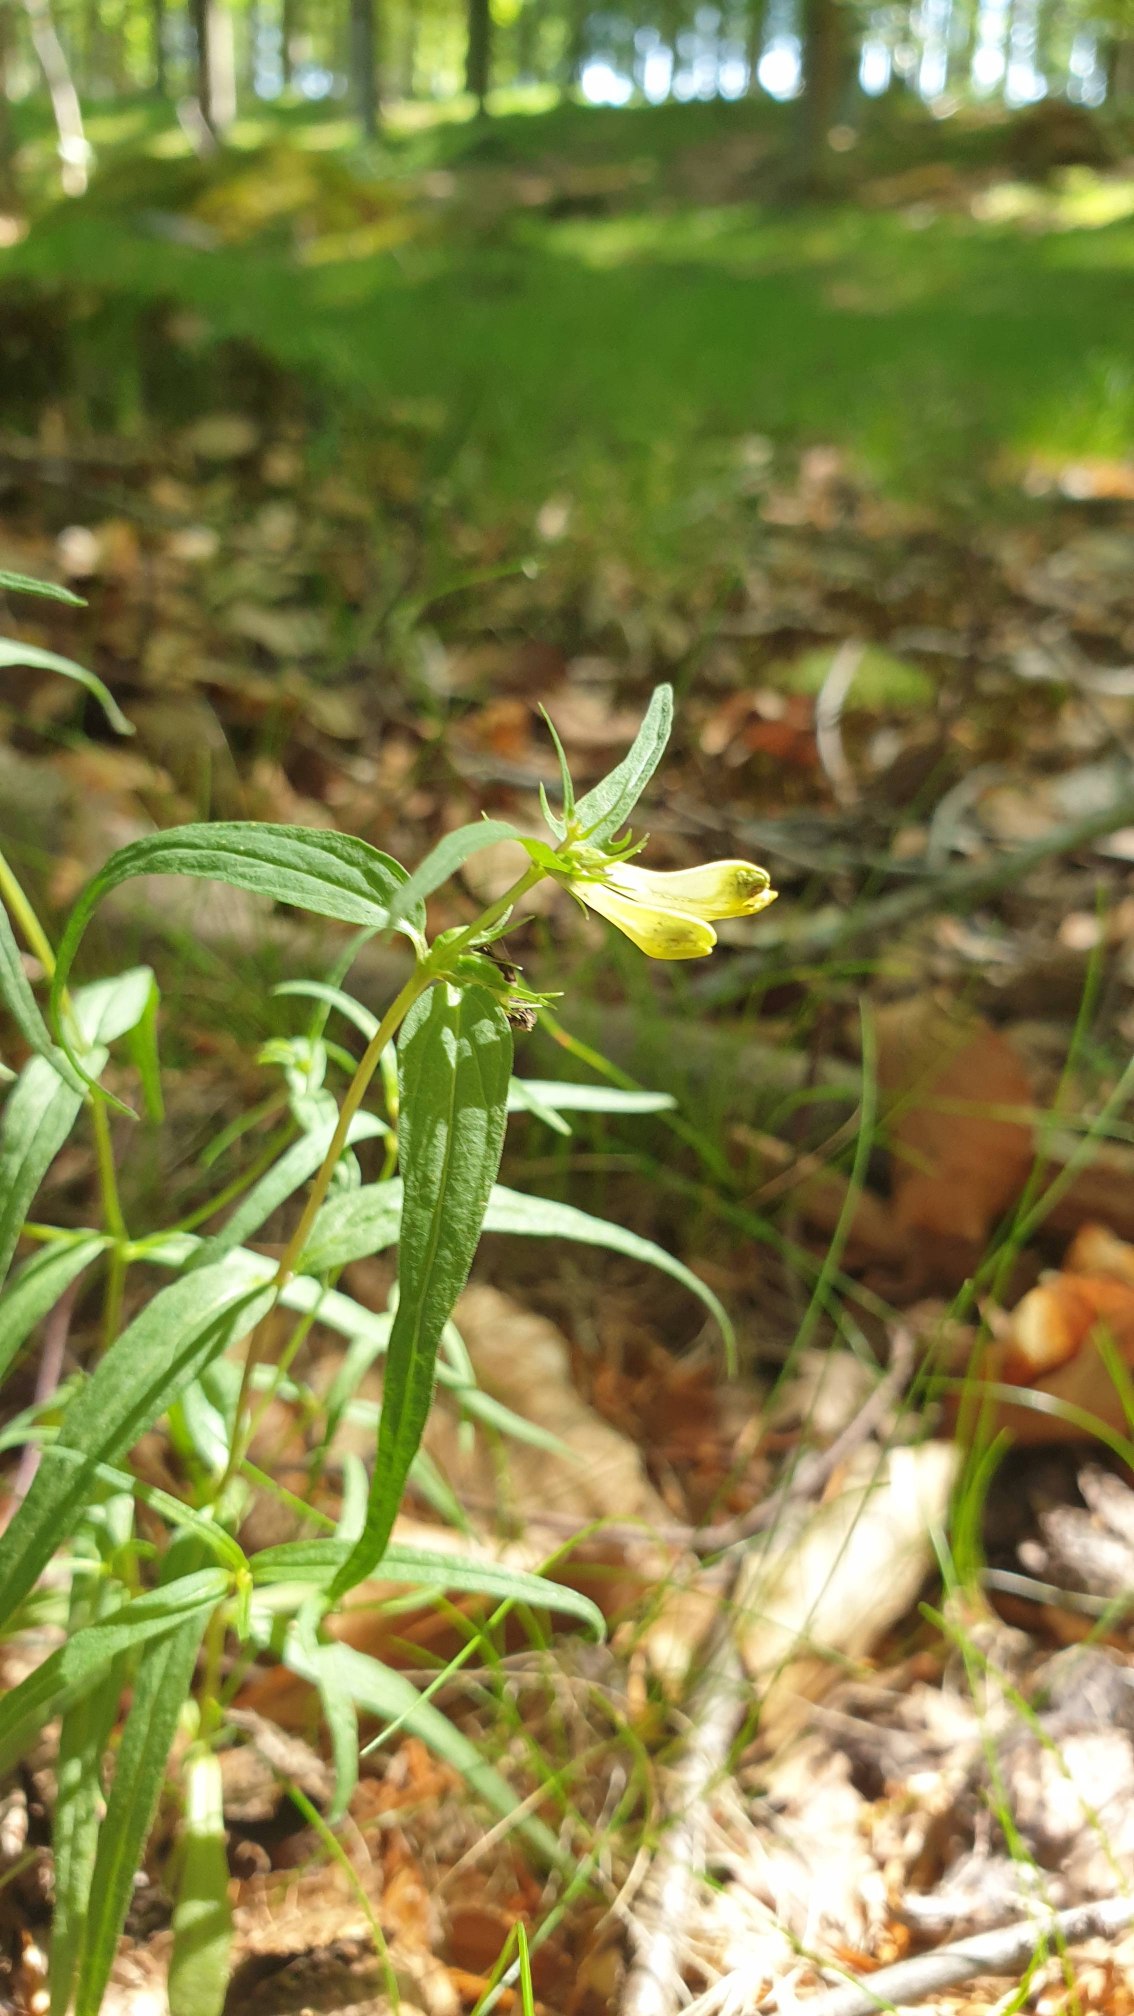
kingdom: Plantae
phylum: Tracheophyta
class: Magnoliopsida
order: Lamiales
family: Orobanchaceae
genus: Melampyrum
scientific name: Melampyrum pratense
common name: Almindelig kohvede
